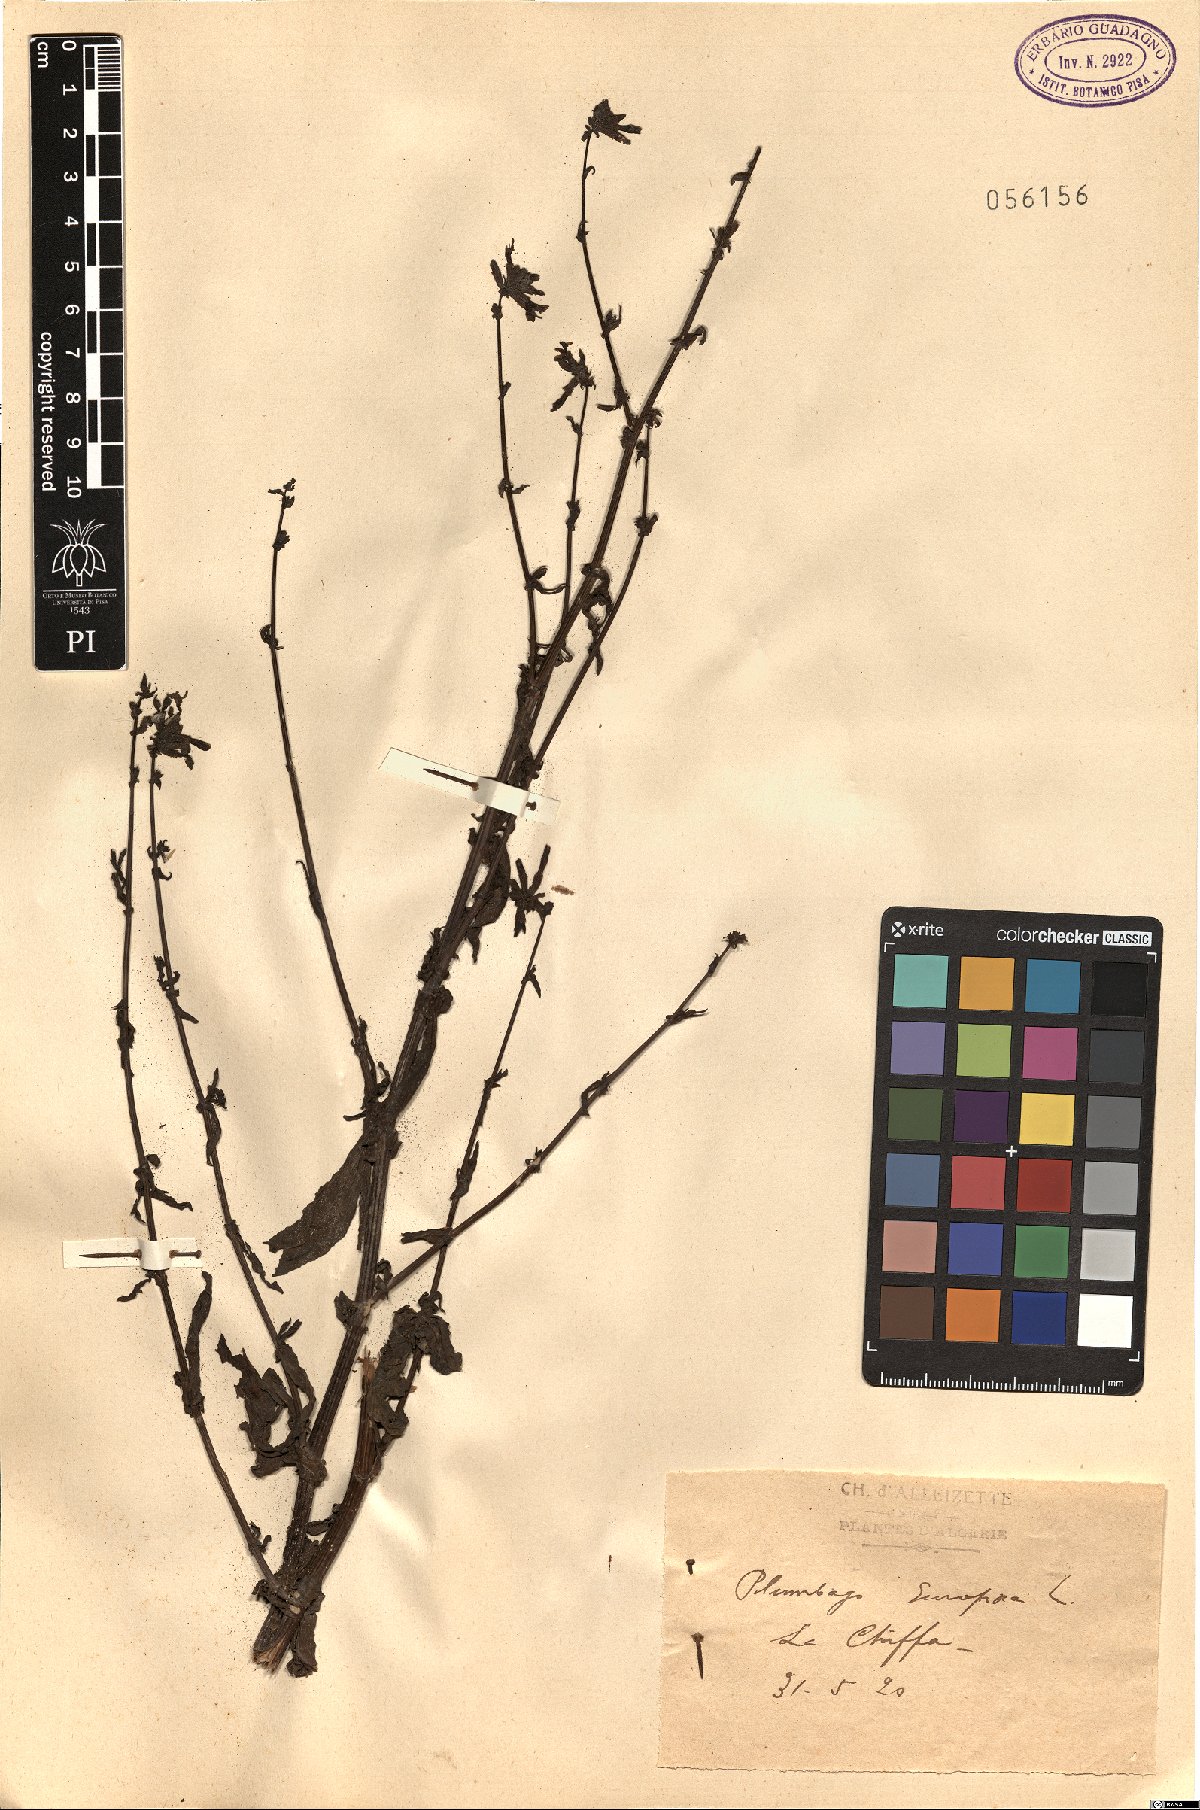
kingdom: Plantae
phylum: Tracheophyta
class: Magnoliopsida
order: Caryophyllales
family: Plumbaginaceae
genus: Plumbago
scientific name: Plumbago europaea
